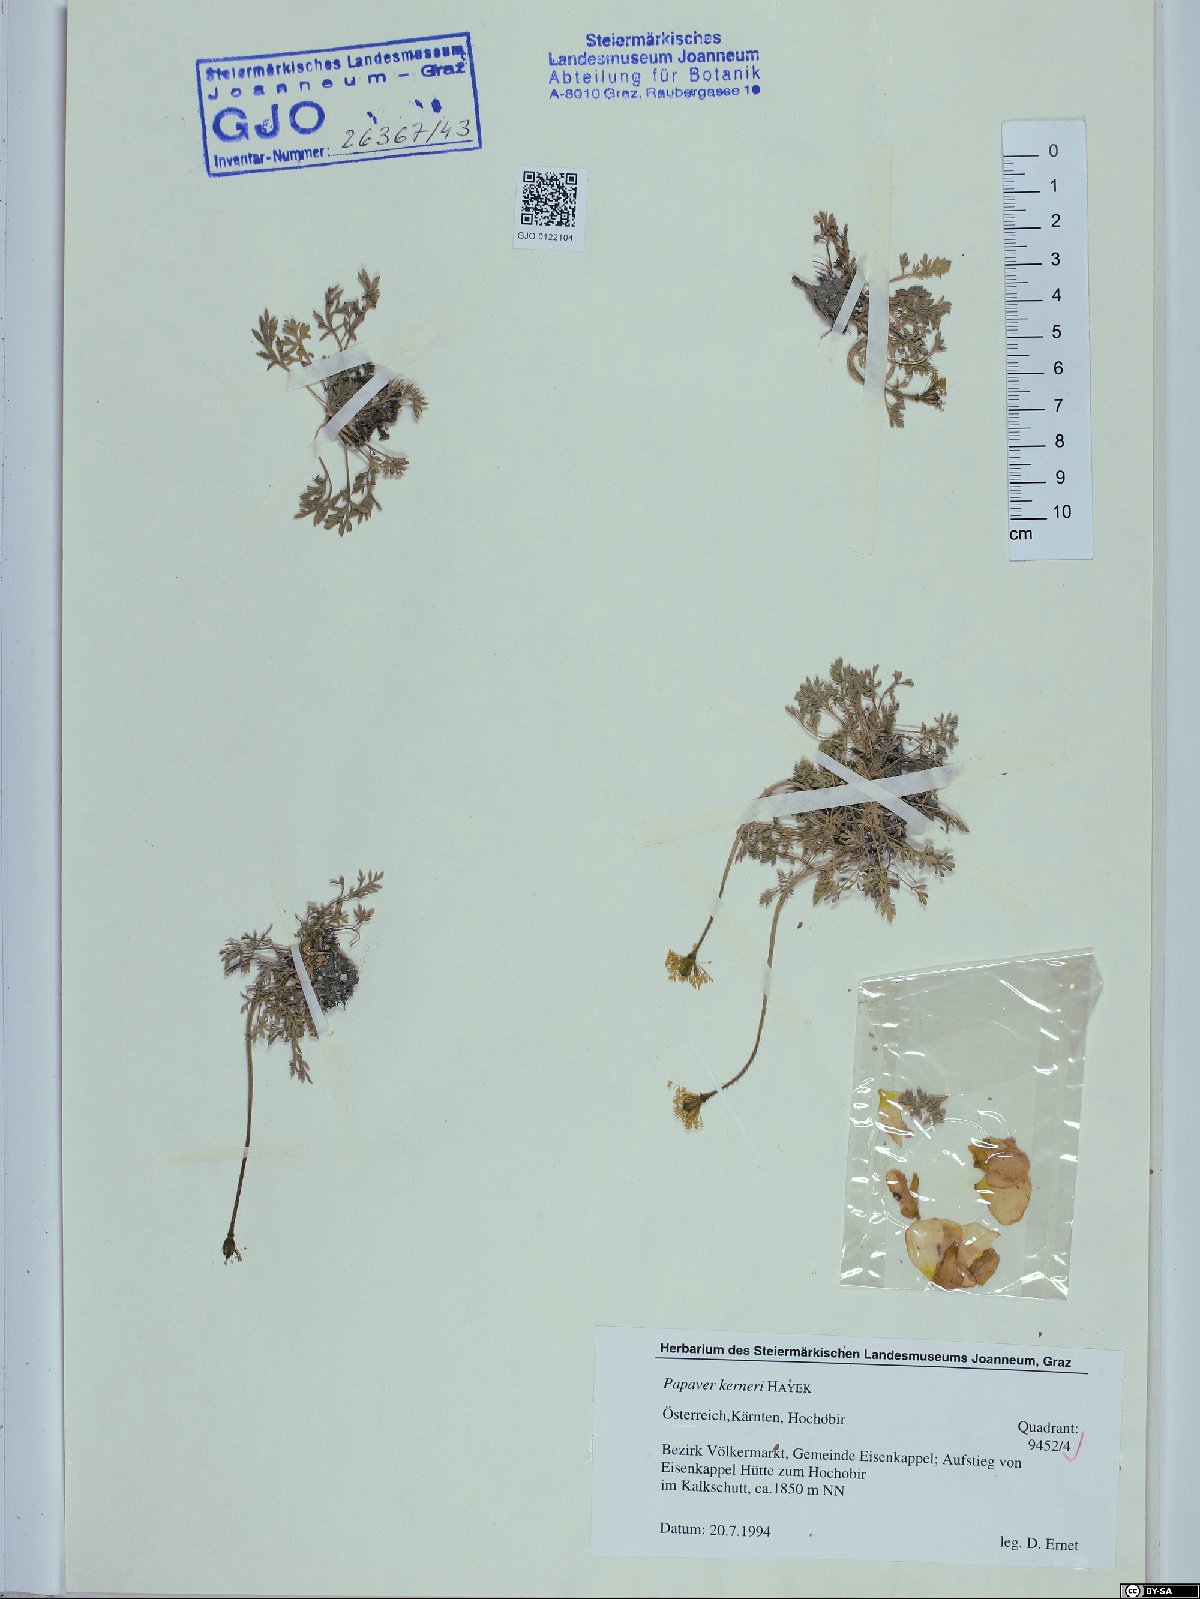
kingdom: Plantae
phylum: Tracheophyta
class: Magnoliopsida
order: Ranunculales
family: Papaveraceae
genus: Papaver
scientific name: Papaver alpinum
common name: Austrian poppy
